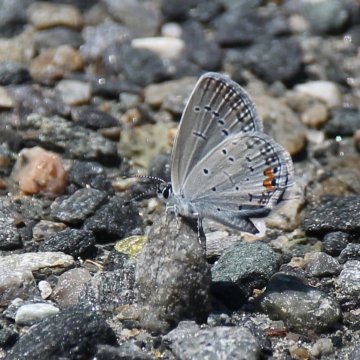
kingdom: Animalia
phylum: Arthropoda
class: Insecta
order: Lepidoptera
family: Lycaenidae
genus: Elkalyce
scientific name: Elkalyce comyntas
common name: Eastern Tailed-Blue
